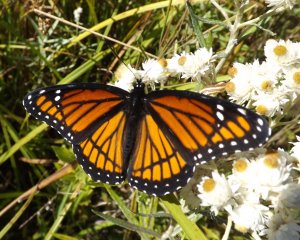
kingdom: Animalia
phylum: Arthropoda
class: Insecta
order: Lepidoptera
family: Nymphalidae
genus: Limenitis
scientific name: Limenitis archippus
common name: Viceroy
